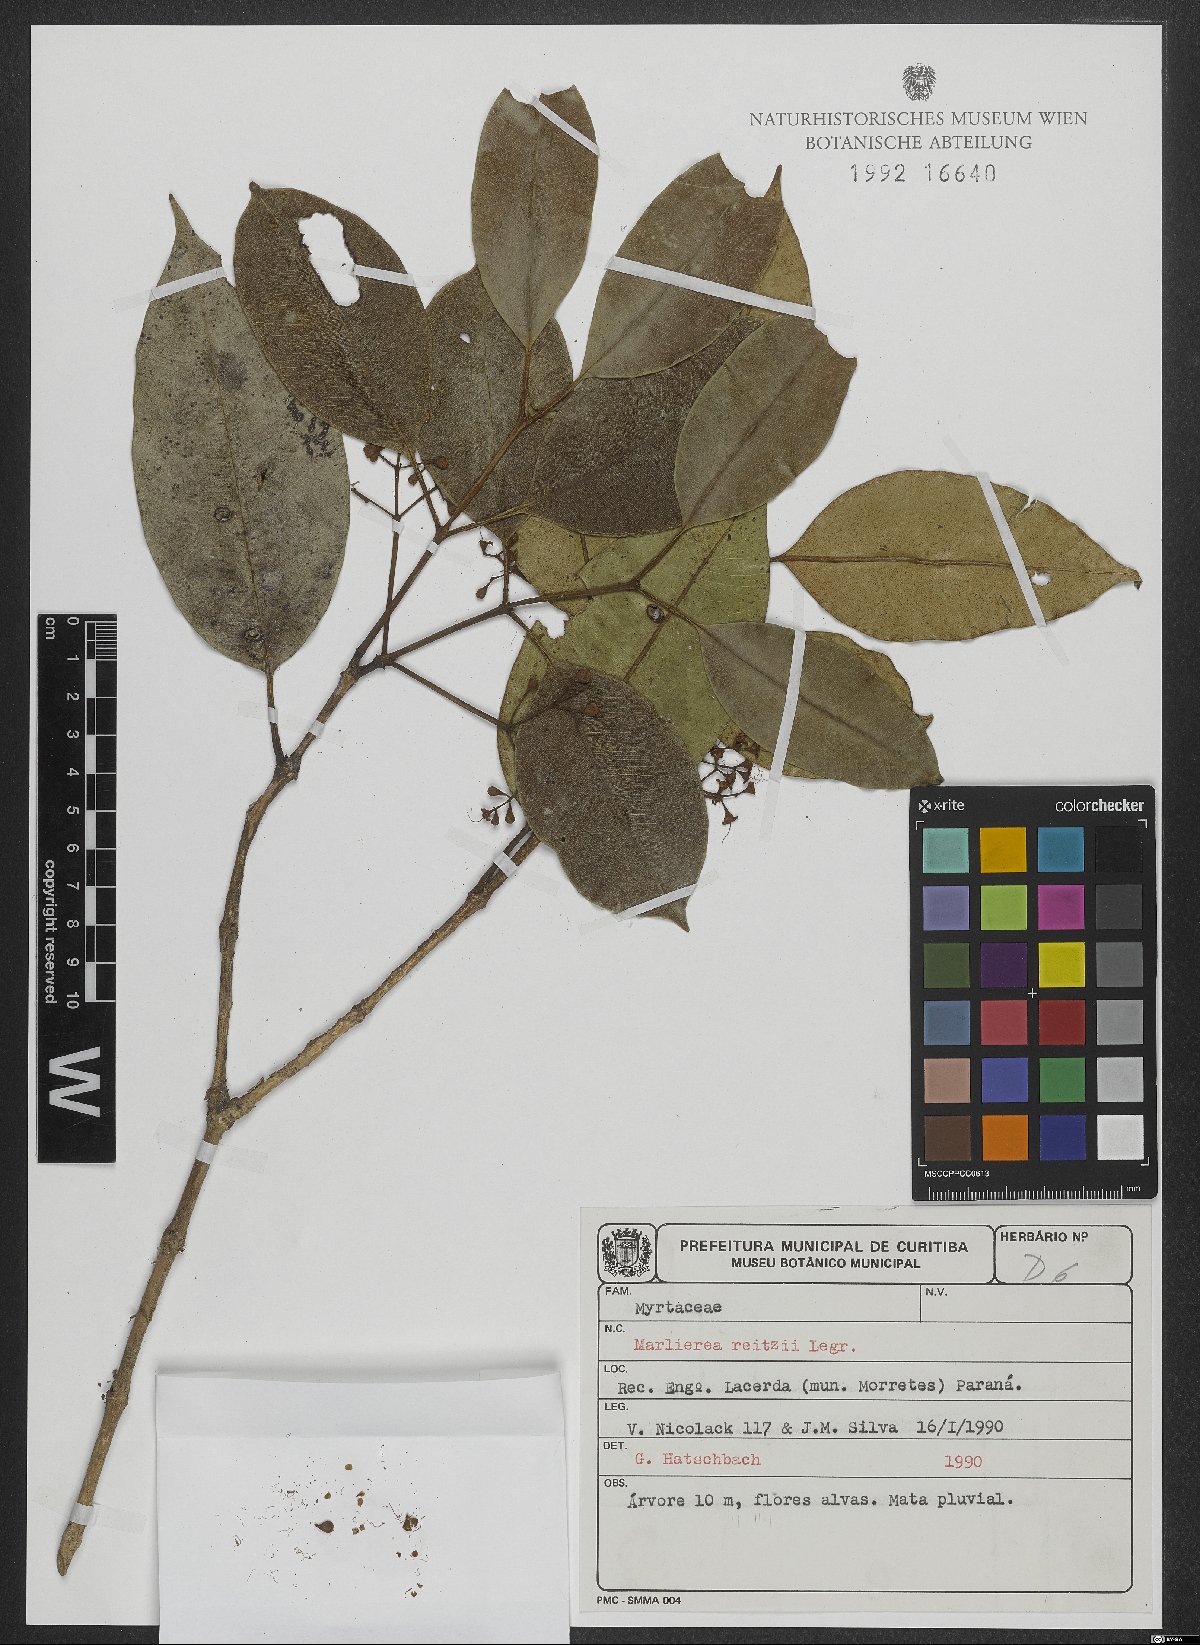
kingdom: Plantae
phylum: Tracheophyta
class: Magnoliopsida
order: Myrtales
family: Myrtaceae
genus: Myrcia
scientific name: Myrcia reitzii
